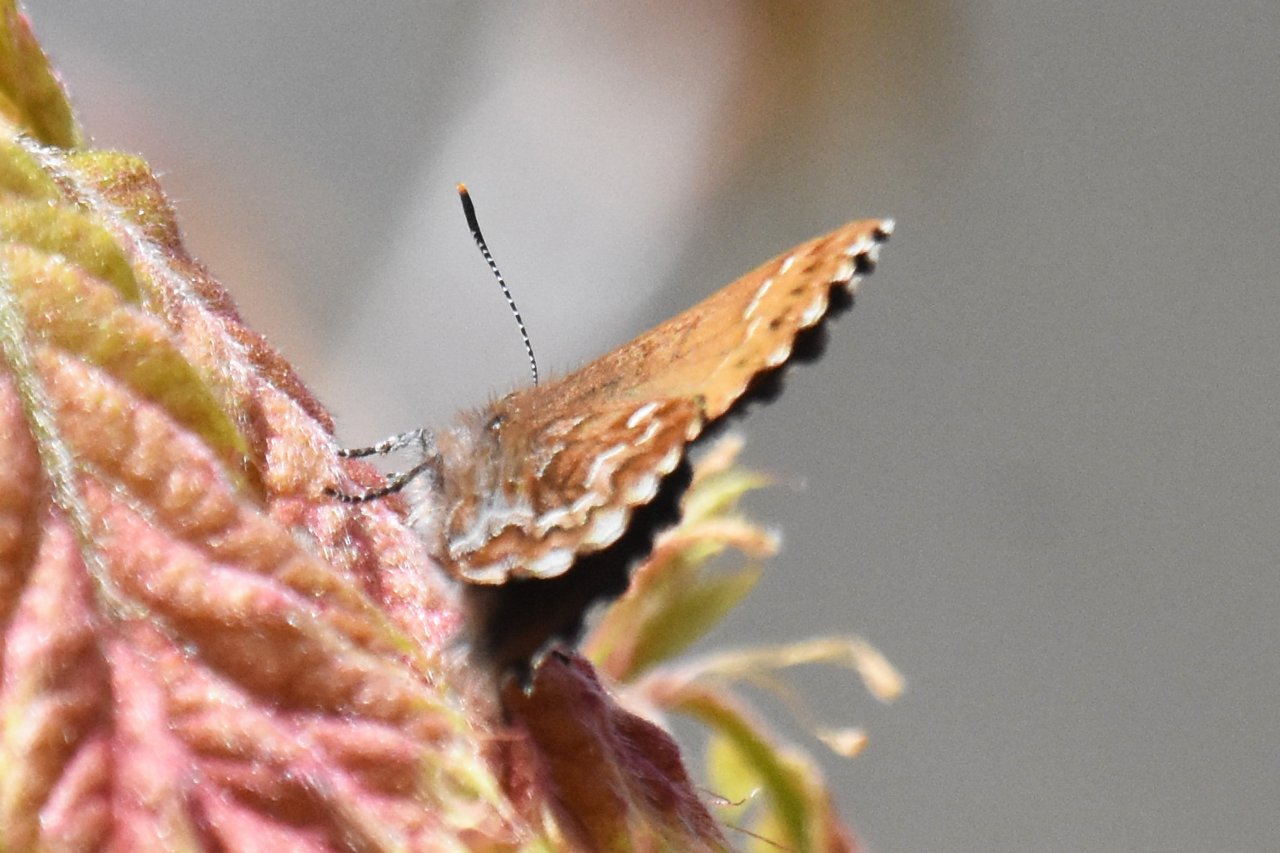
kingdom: Animalia
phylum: Arthropoda
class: Insecta
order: Lepidoptera
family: Lycaenidae
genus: Incisalia
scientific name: Incisalia niphon
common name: Eastern Pine Elfin
